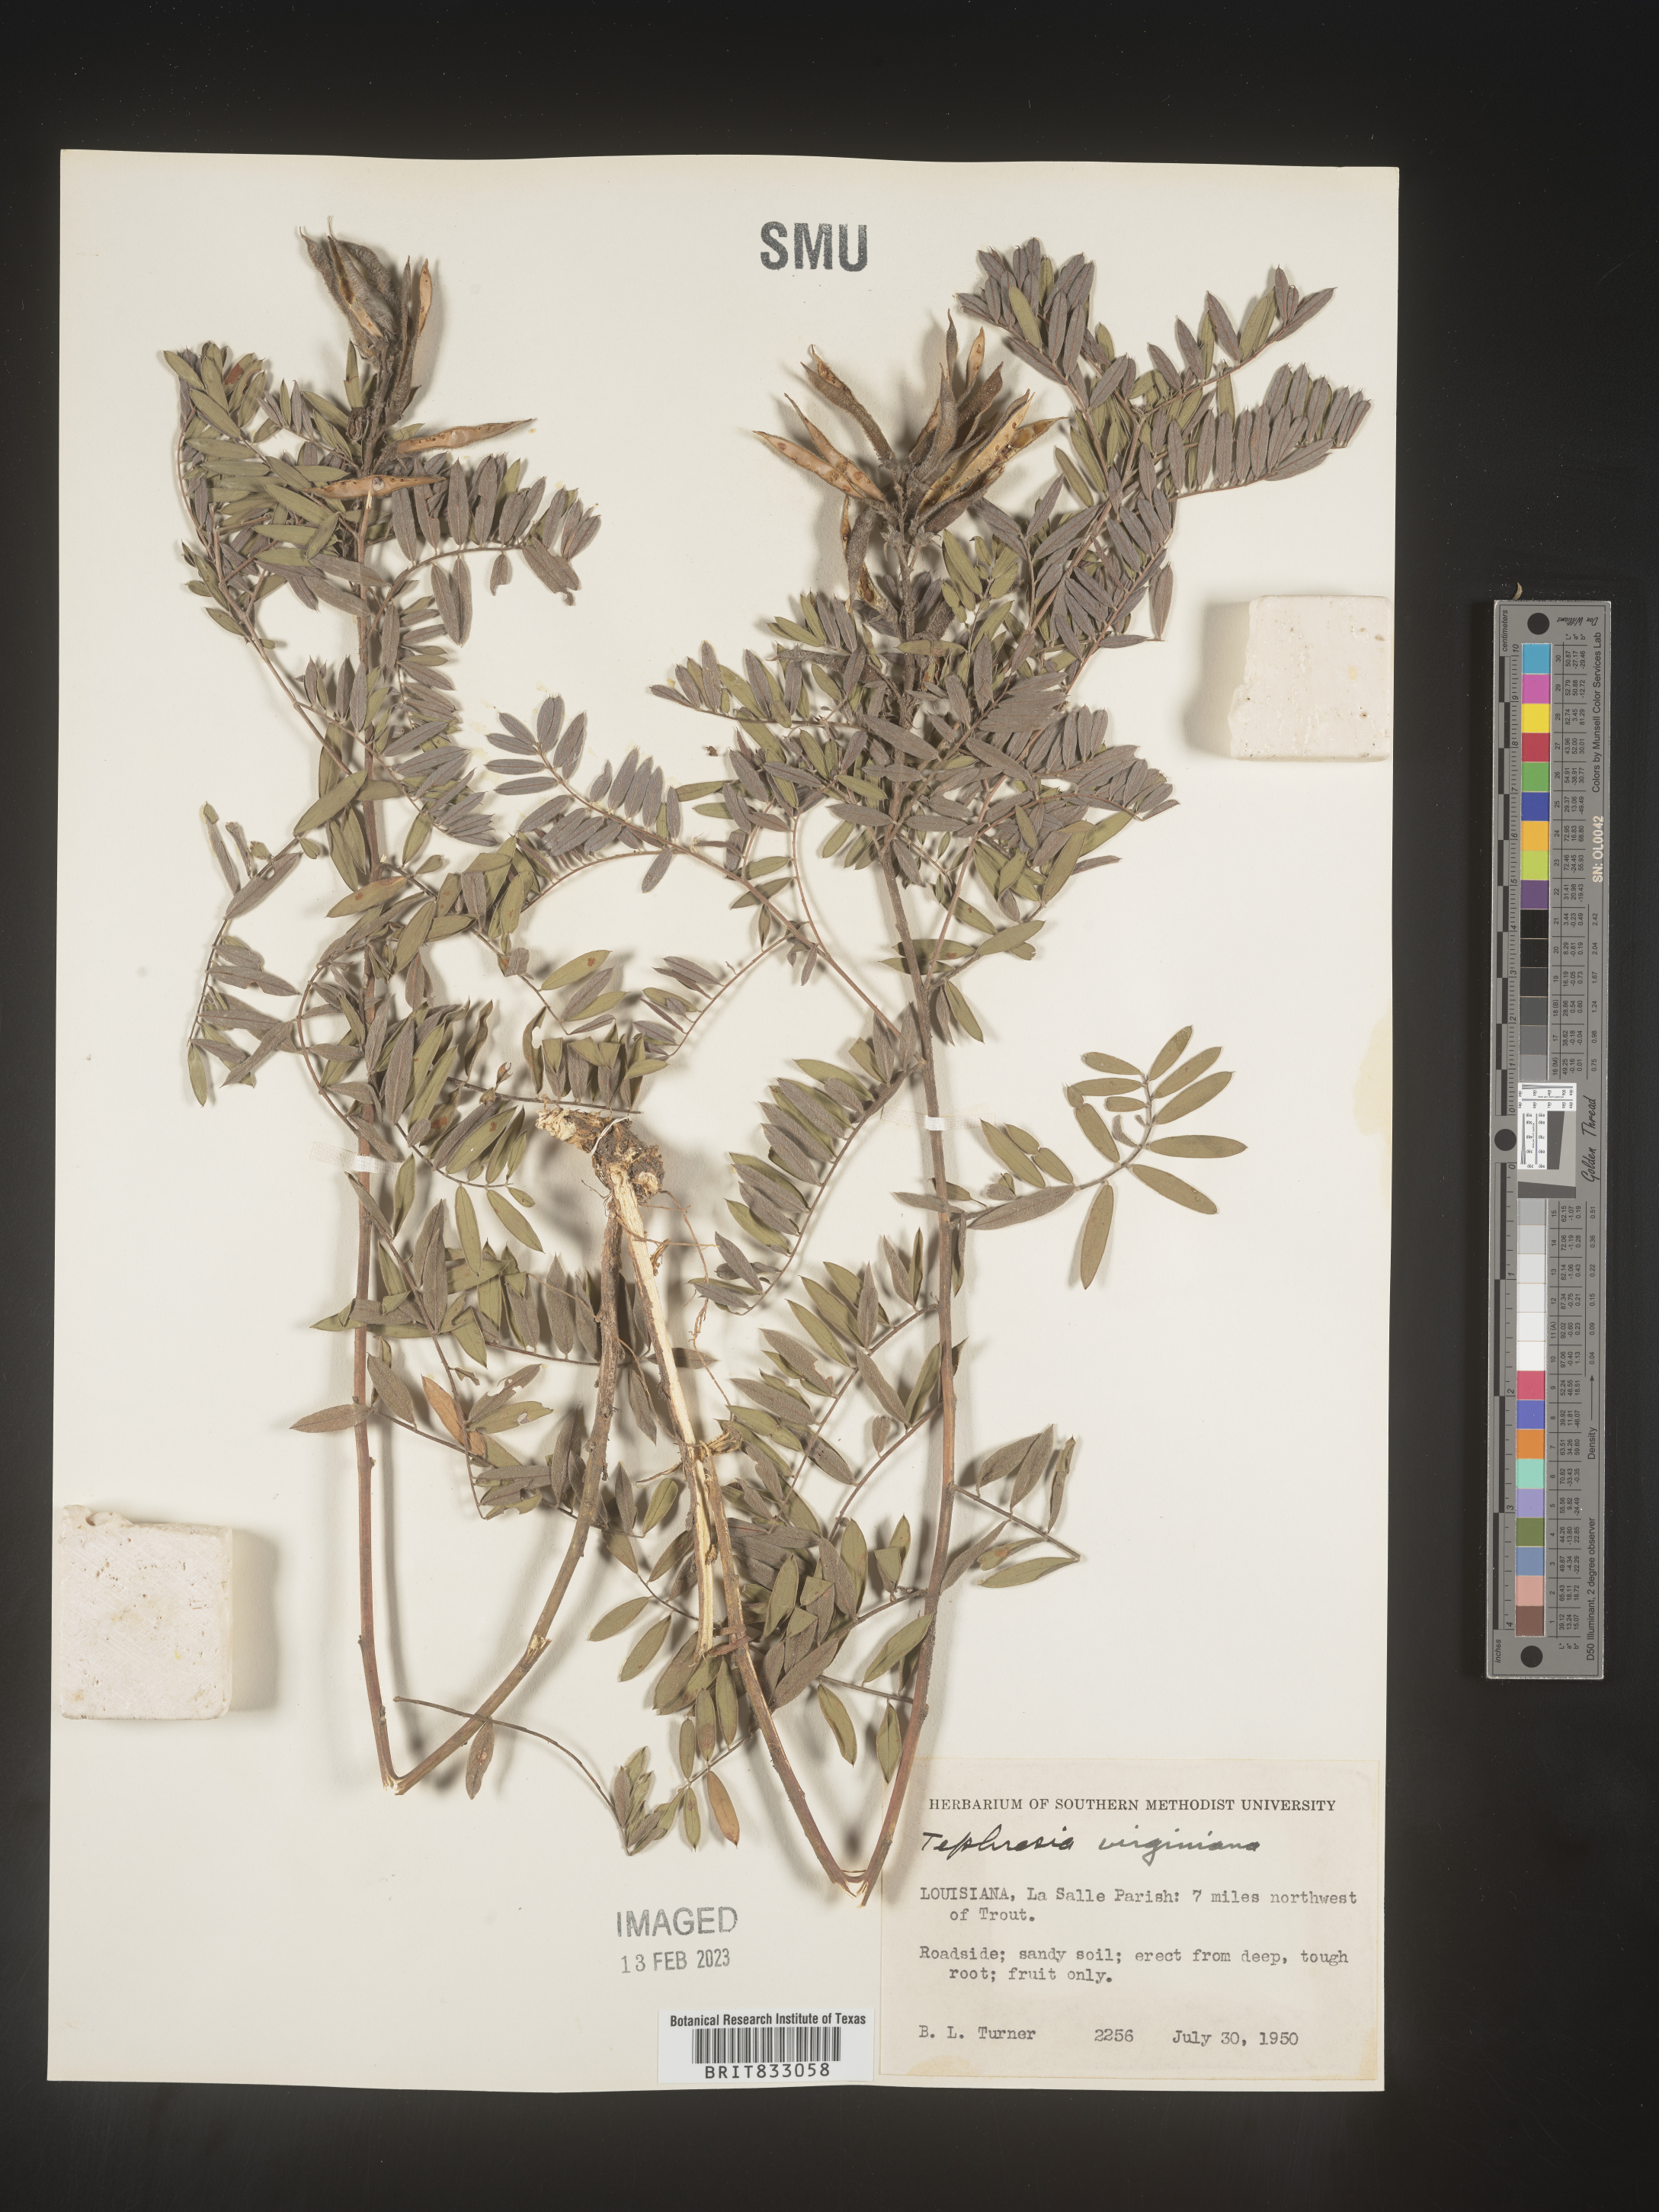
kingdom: Plantae
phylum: Tracheophyta
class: Magnoliopsida
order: Fabales
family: Fabaceae
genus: Tephrosia
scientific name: Tephrosia virginiana
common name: Rabbit-pea
